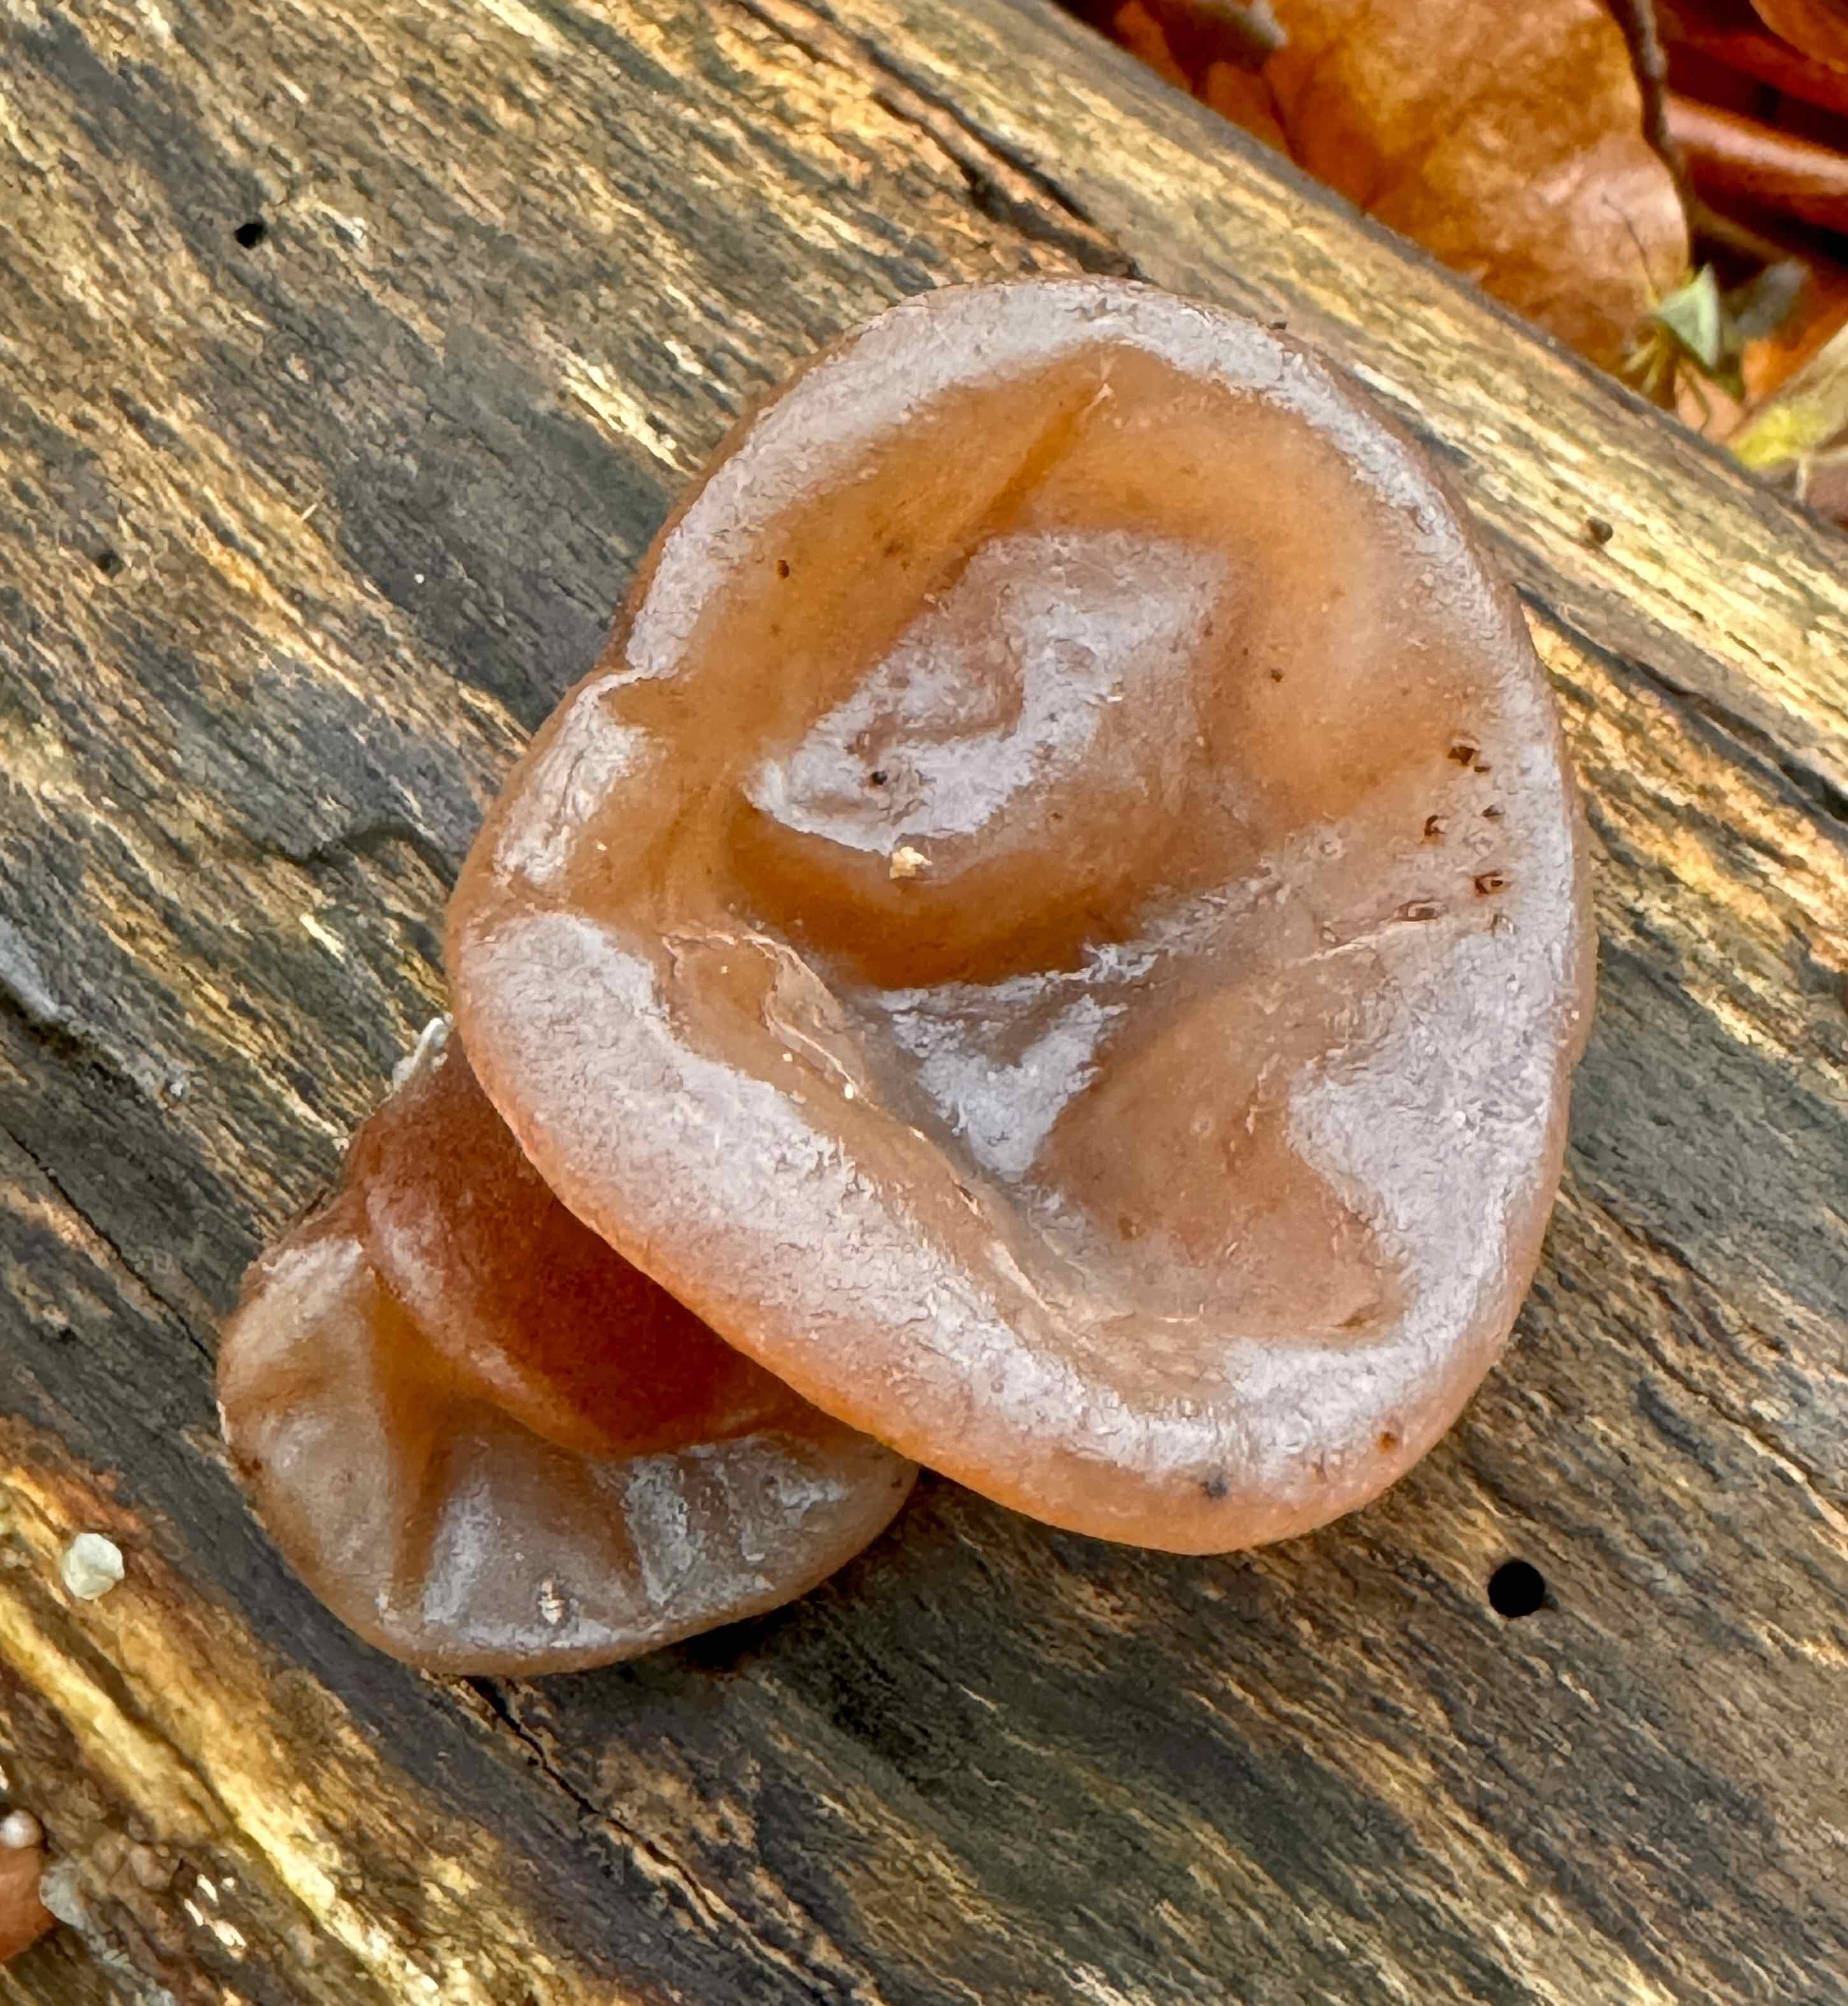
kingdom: Fungi
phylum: Basidiomycota
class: Agaricomycetes
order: Auriculariales
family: Auriculariaceae
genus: Auricularia
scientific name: Auricularia auricula-judae
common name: almindelig judasøre
